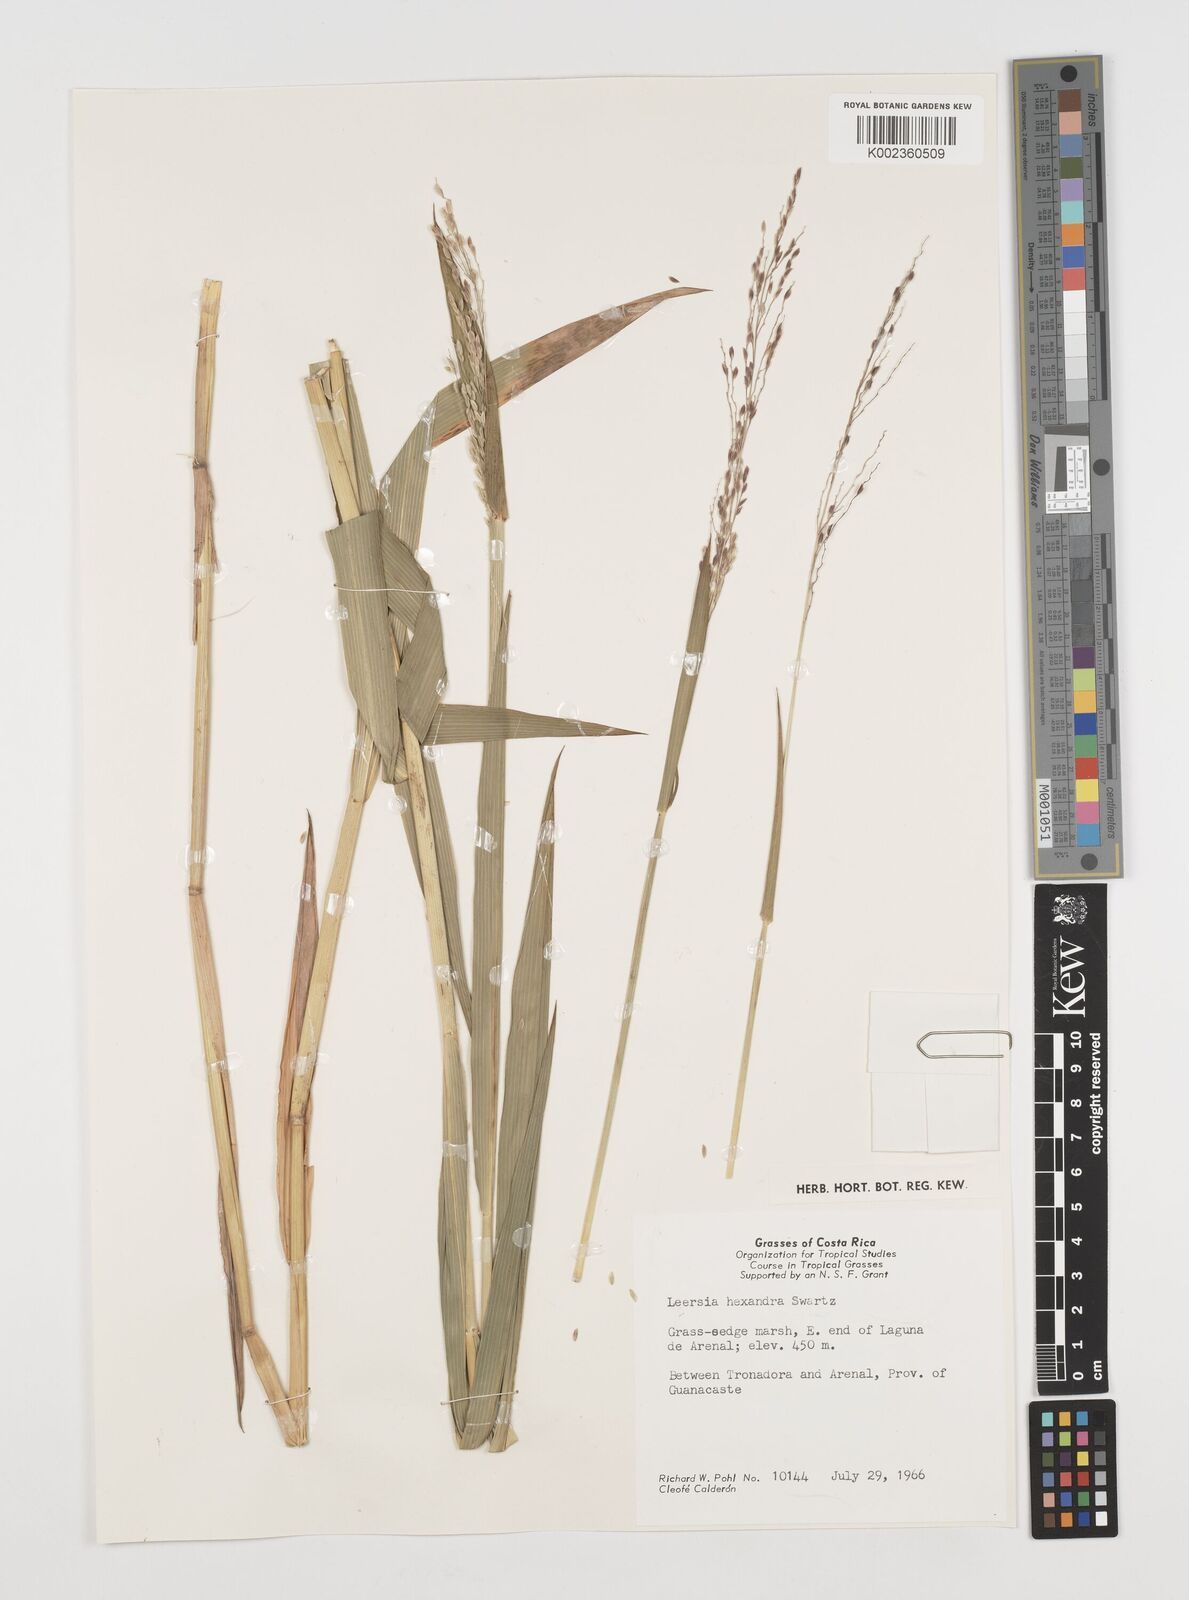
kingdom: Plantae
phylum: Tracheophyta
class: Liliopsida
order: Poales
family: Poaceae
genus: Leersia
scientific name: Leersia hexandra
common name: Southern cut grass
